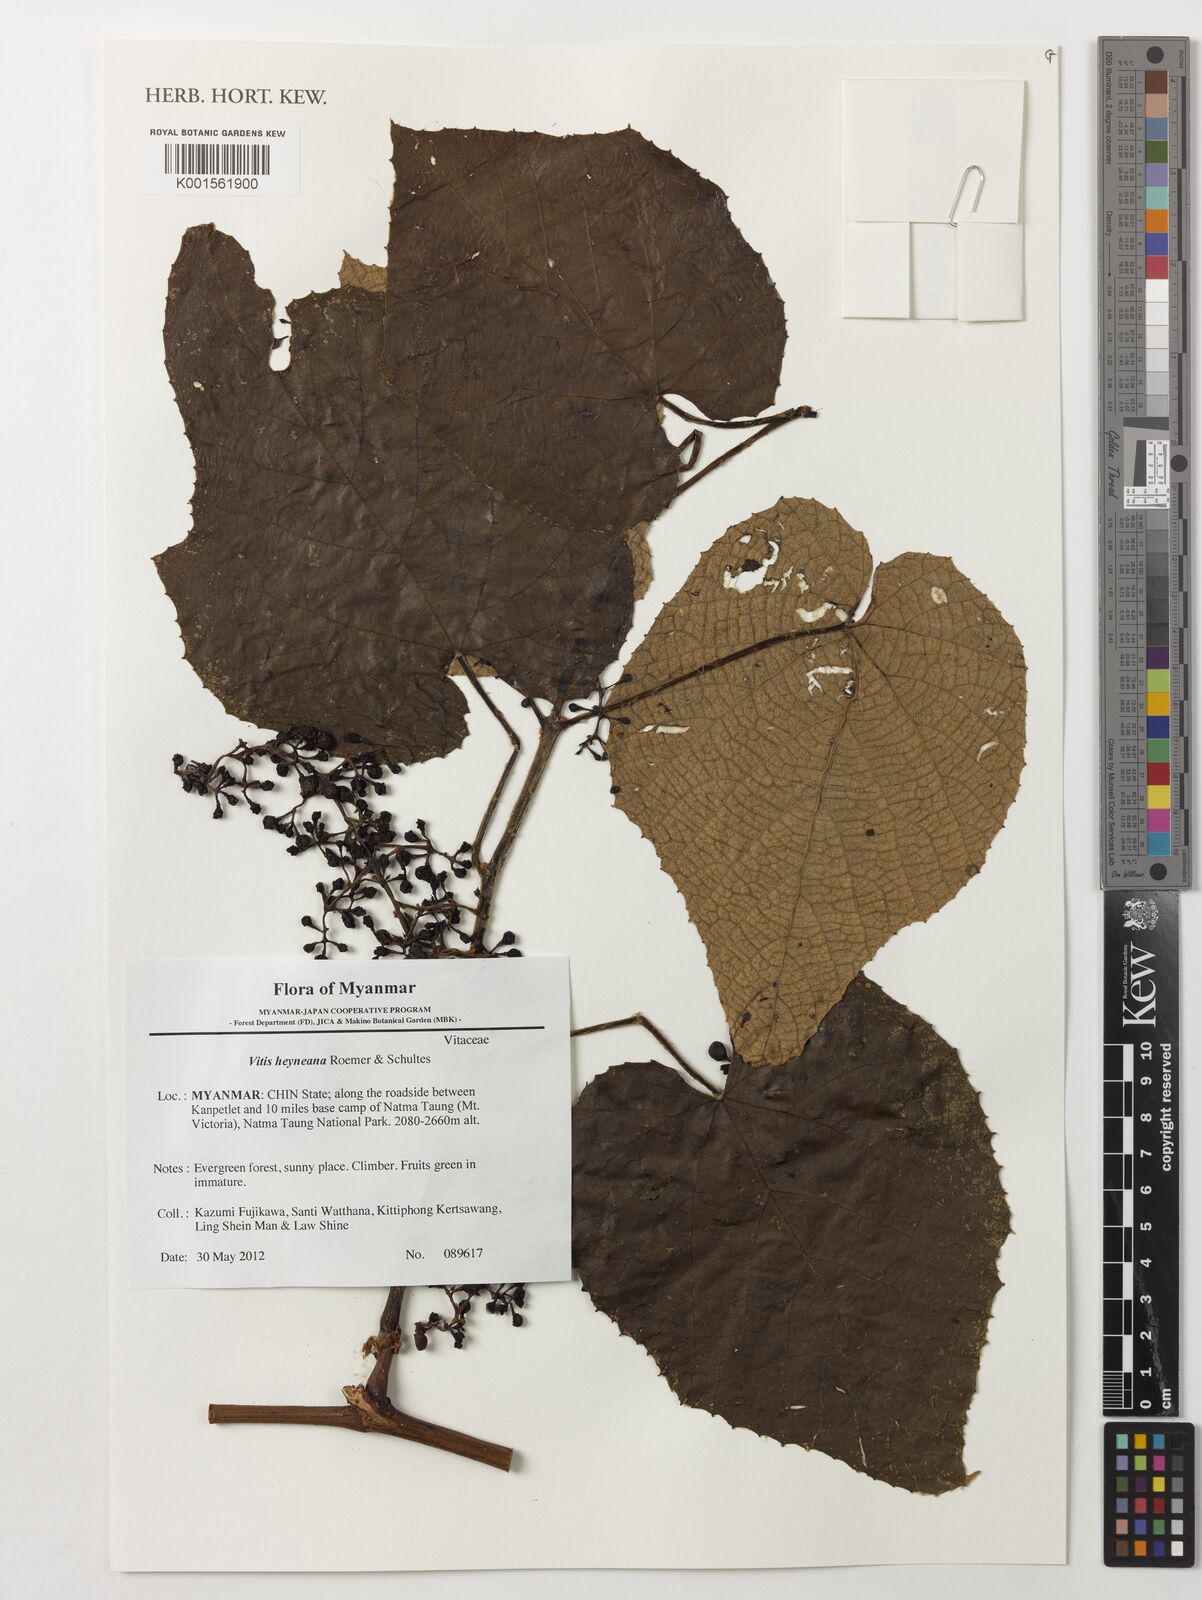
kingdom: Plantae
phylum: Tracheophyta
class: Magnoliopsida
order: Vitales
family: Vitaceae
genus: Vitis
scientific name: Vitis heyneana
